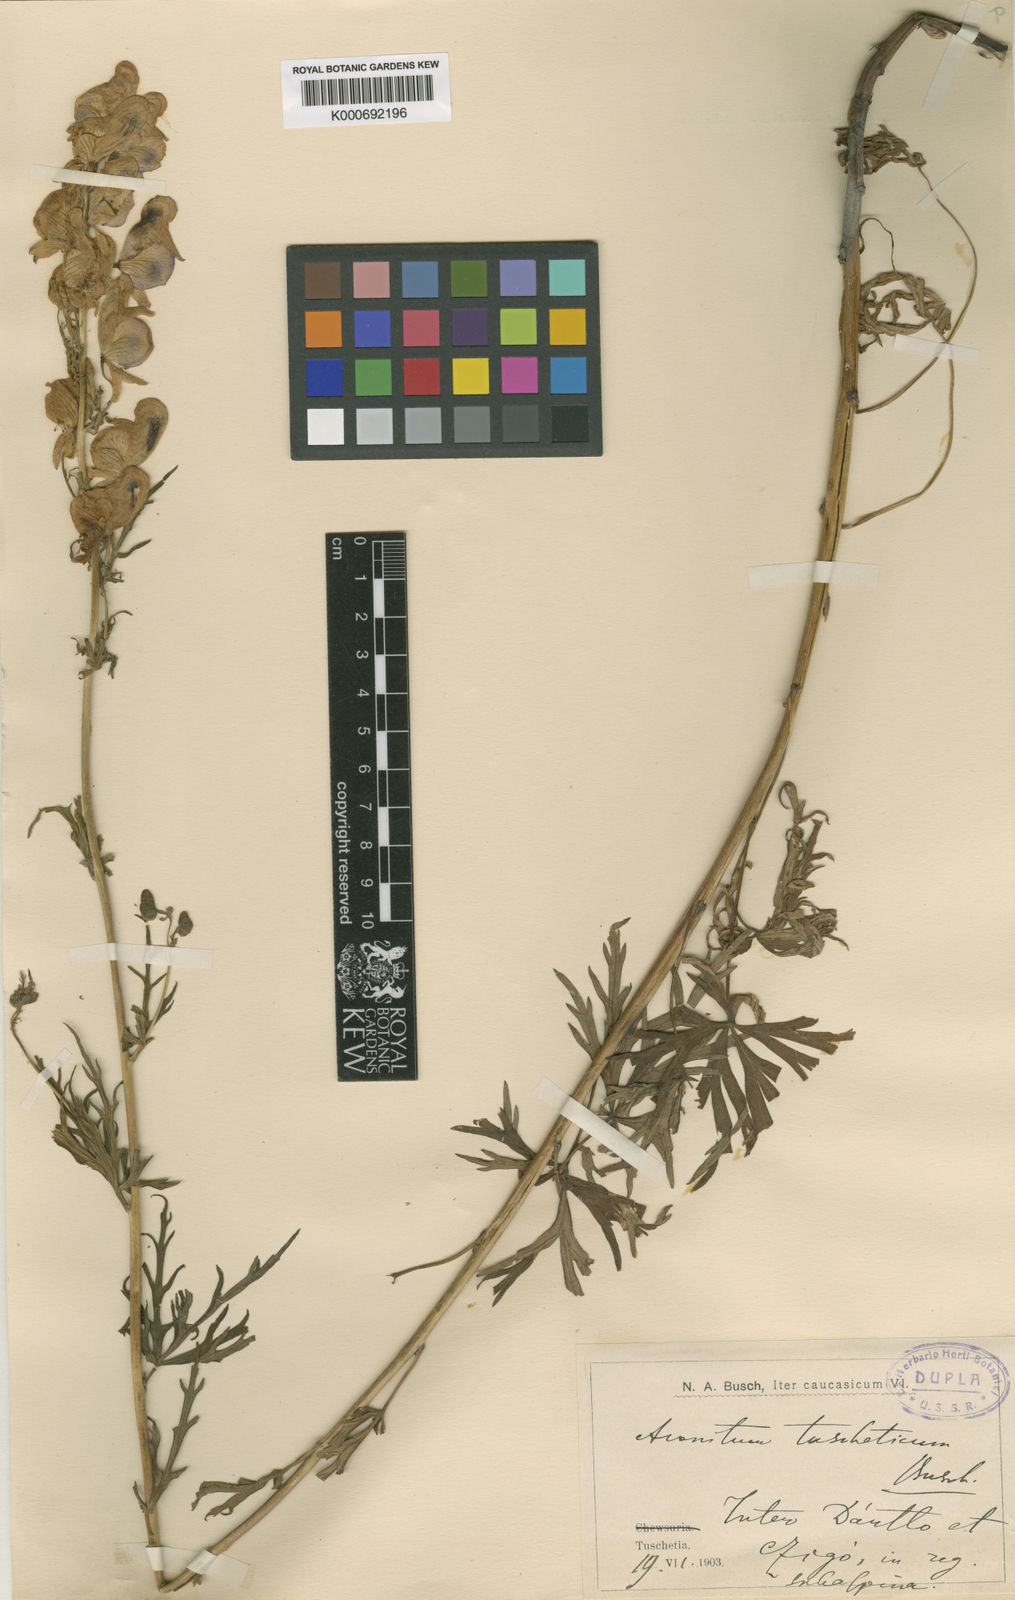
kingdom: Plantae
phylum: Tracheophyta
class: Magnoliopsida
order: Ranunculales
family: Ranunculaceae
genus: Aconitum
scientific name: Aconitum
